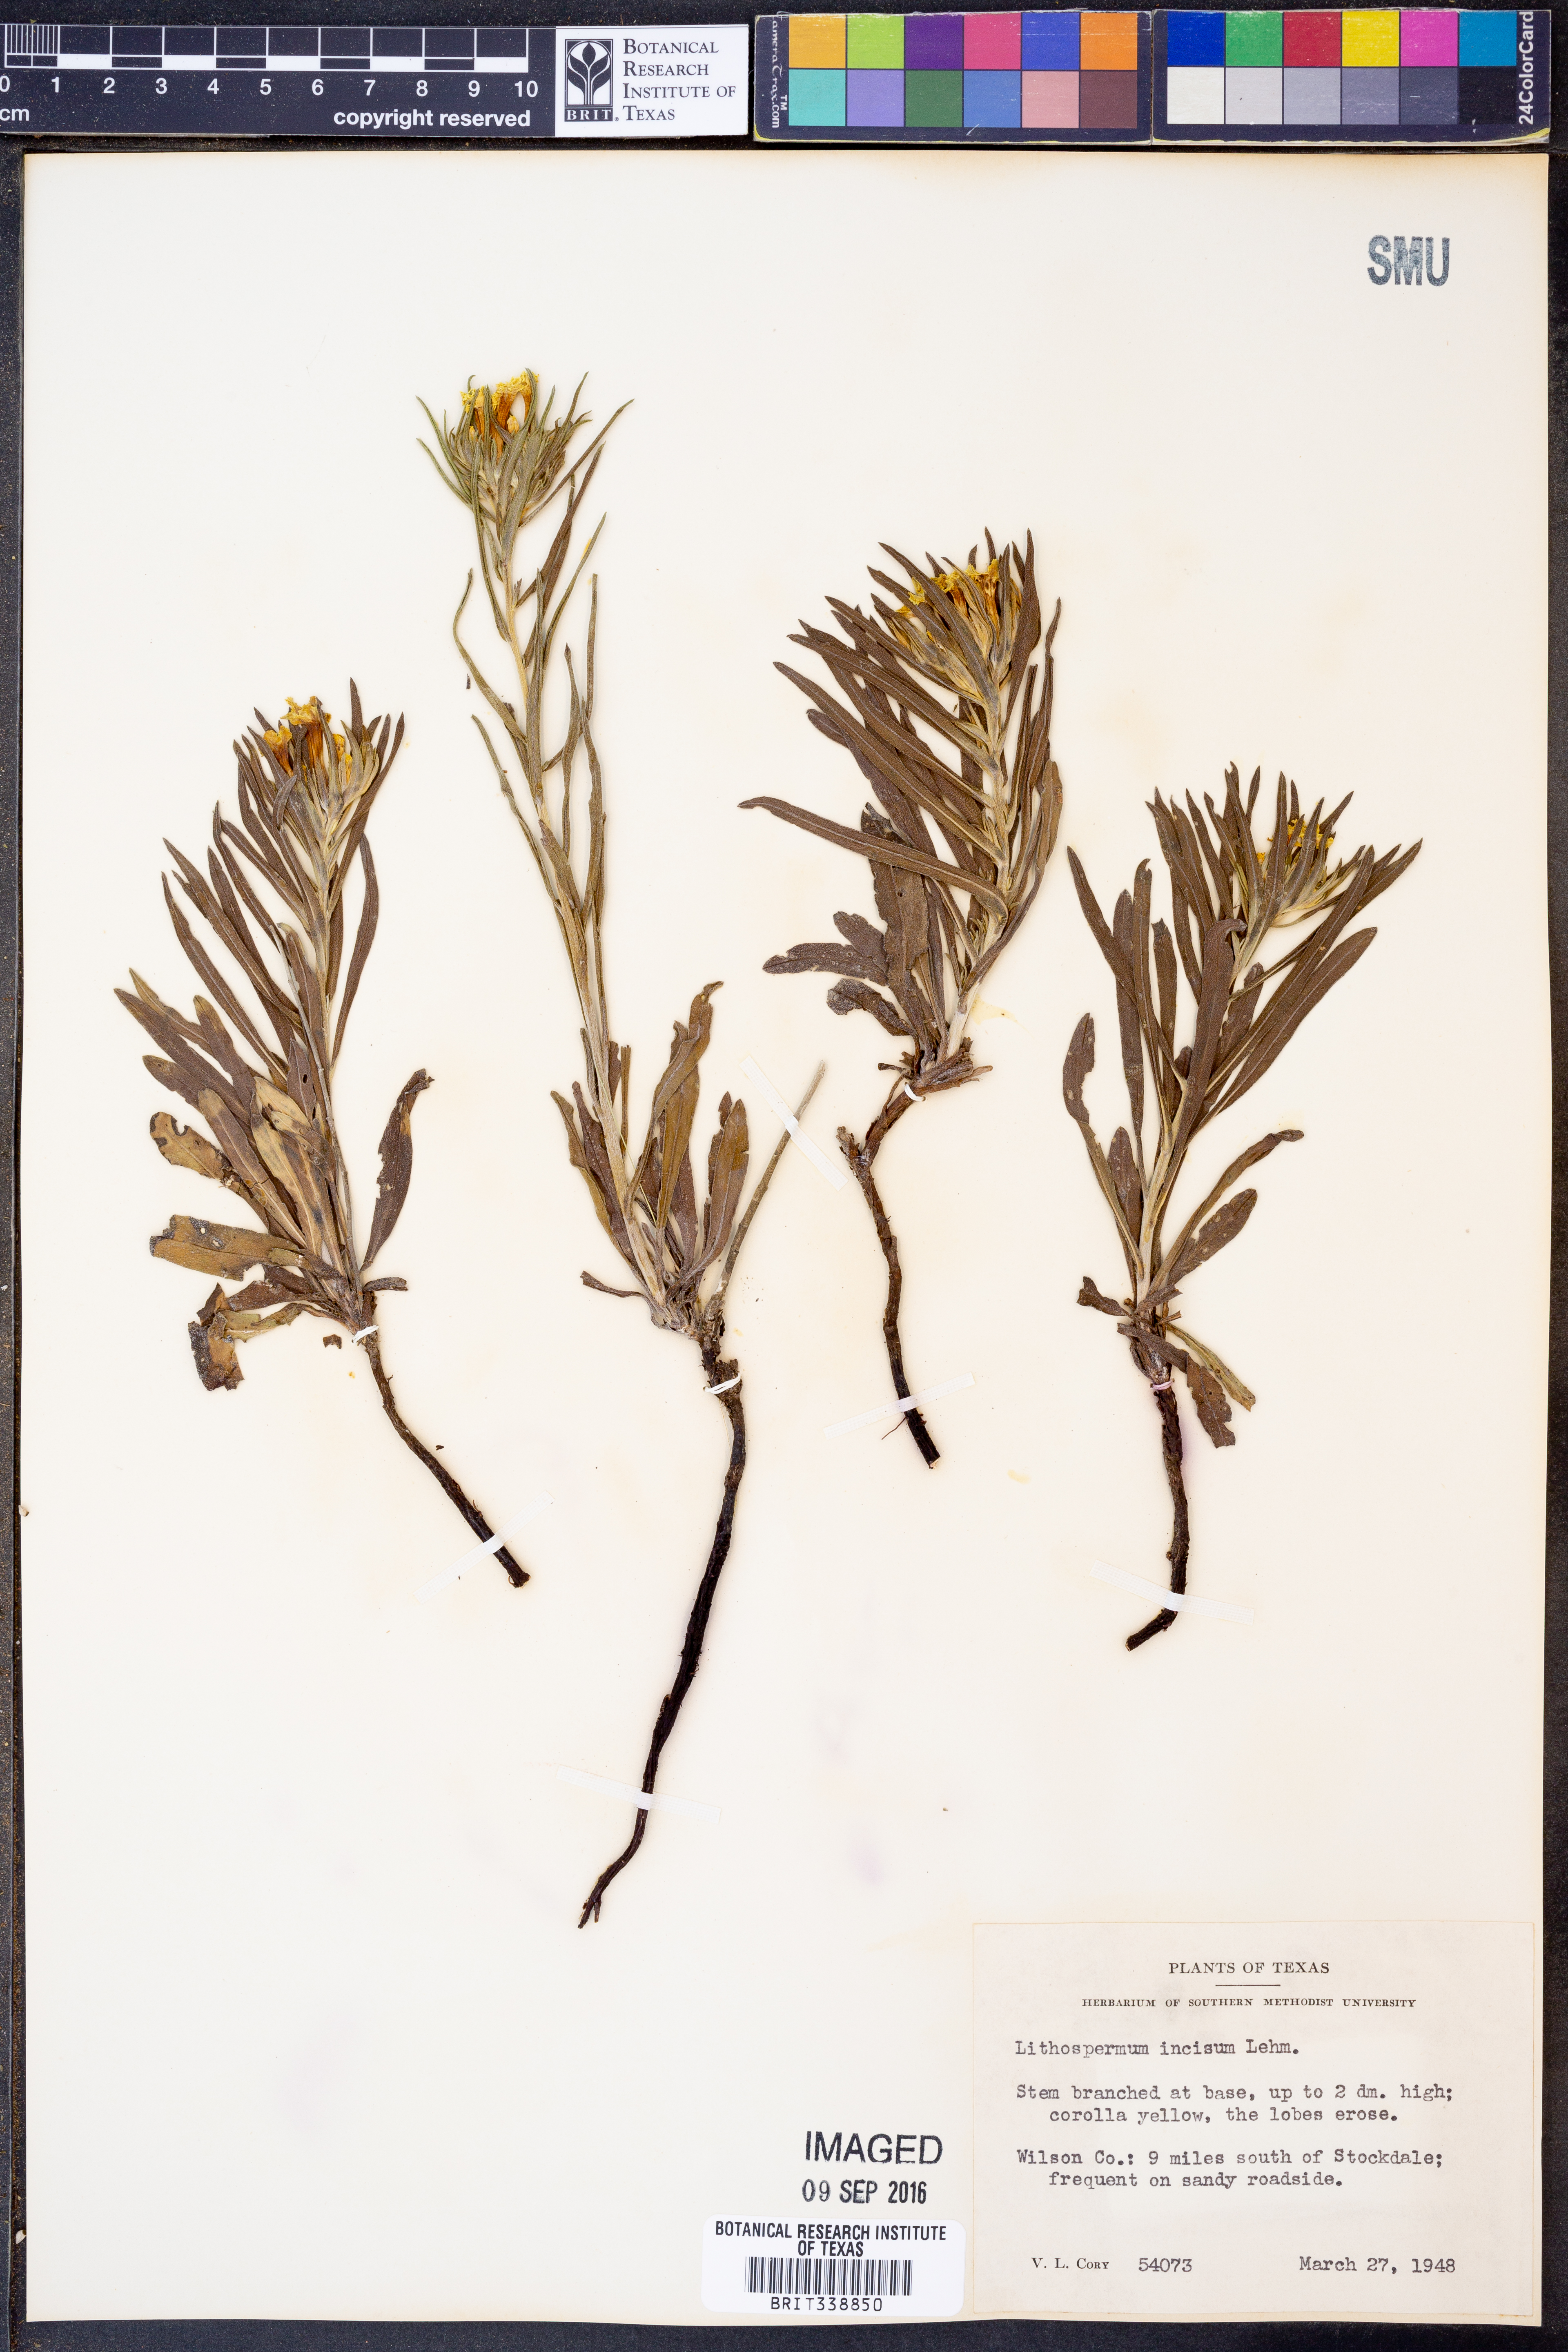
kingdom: Plantae
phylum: Tracheophyta
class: Magnoliopsida
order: Boraginales
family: Boraginaceae
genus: Lithospermum
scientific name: Lithospermum incisum
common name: Fringed gromwell
